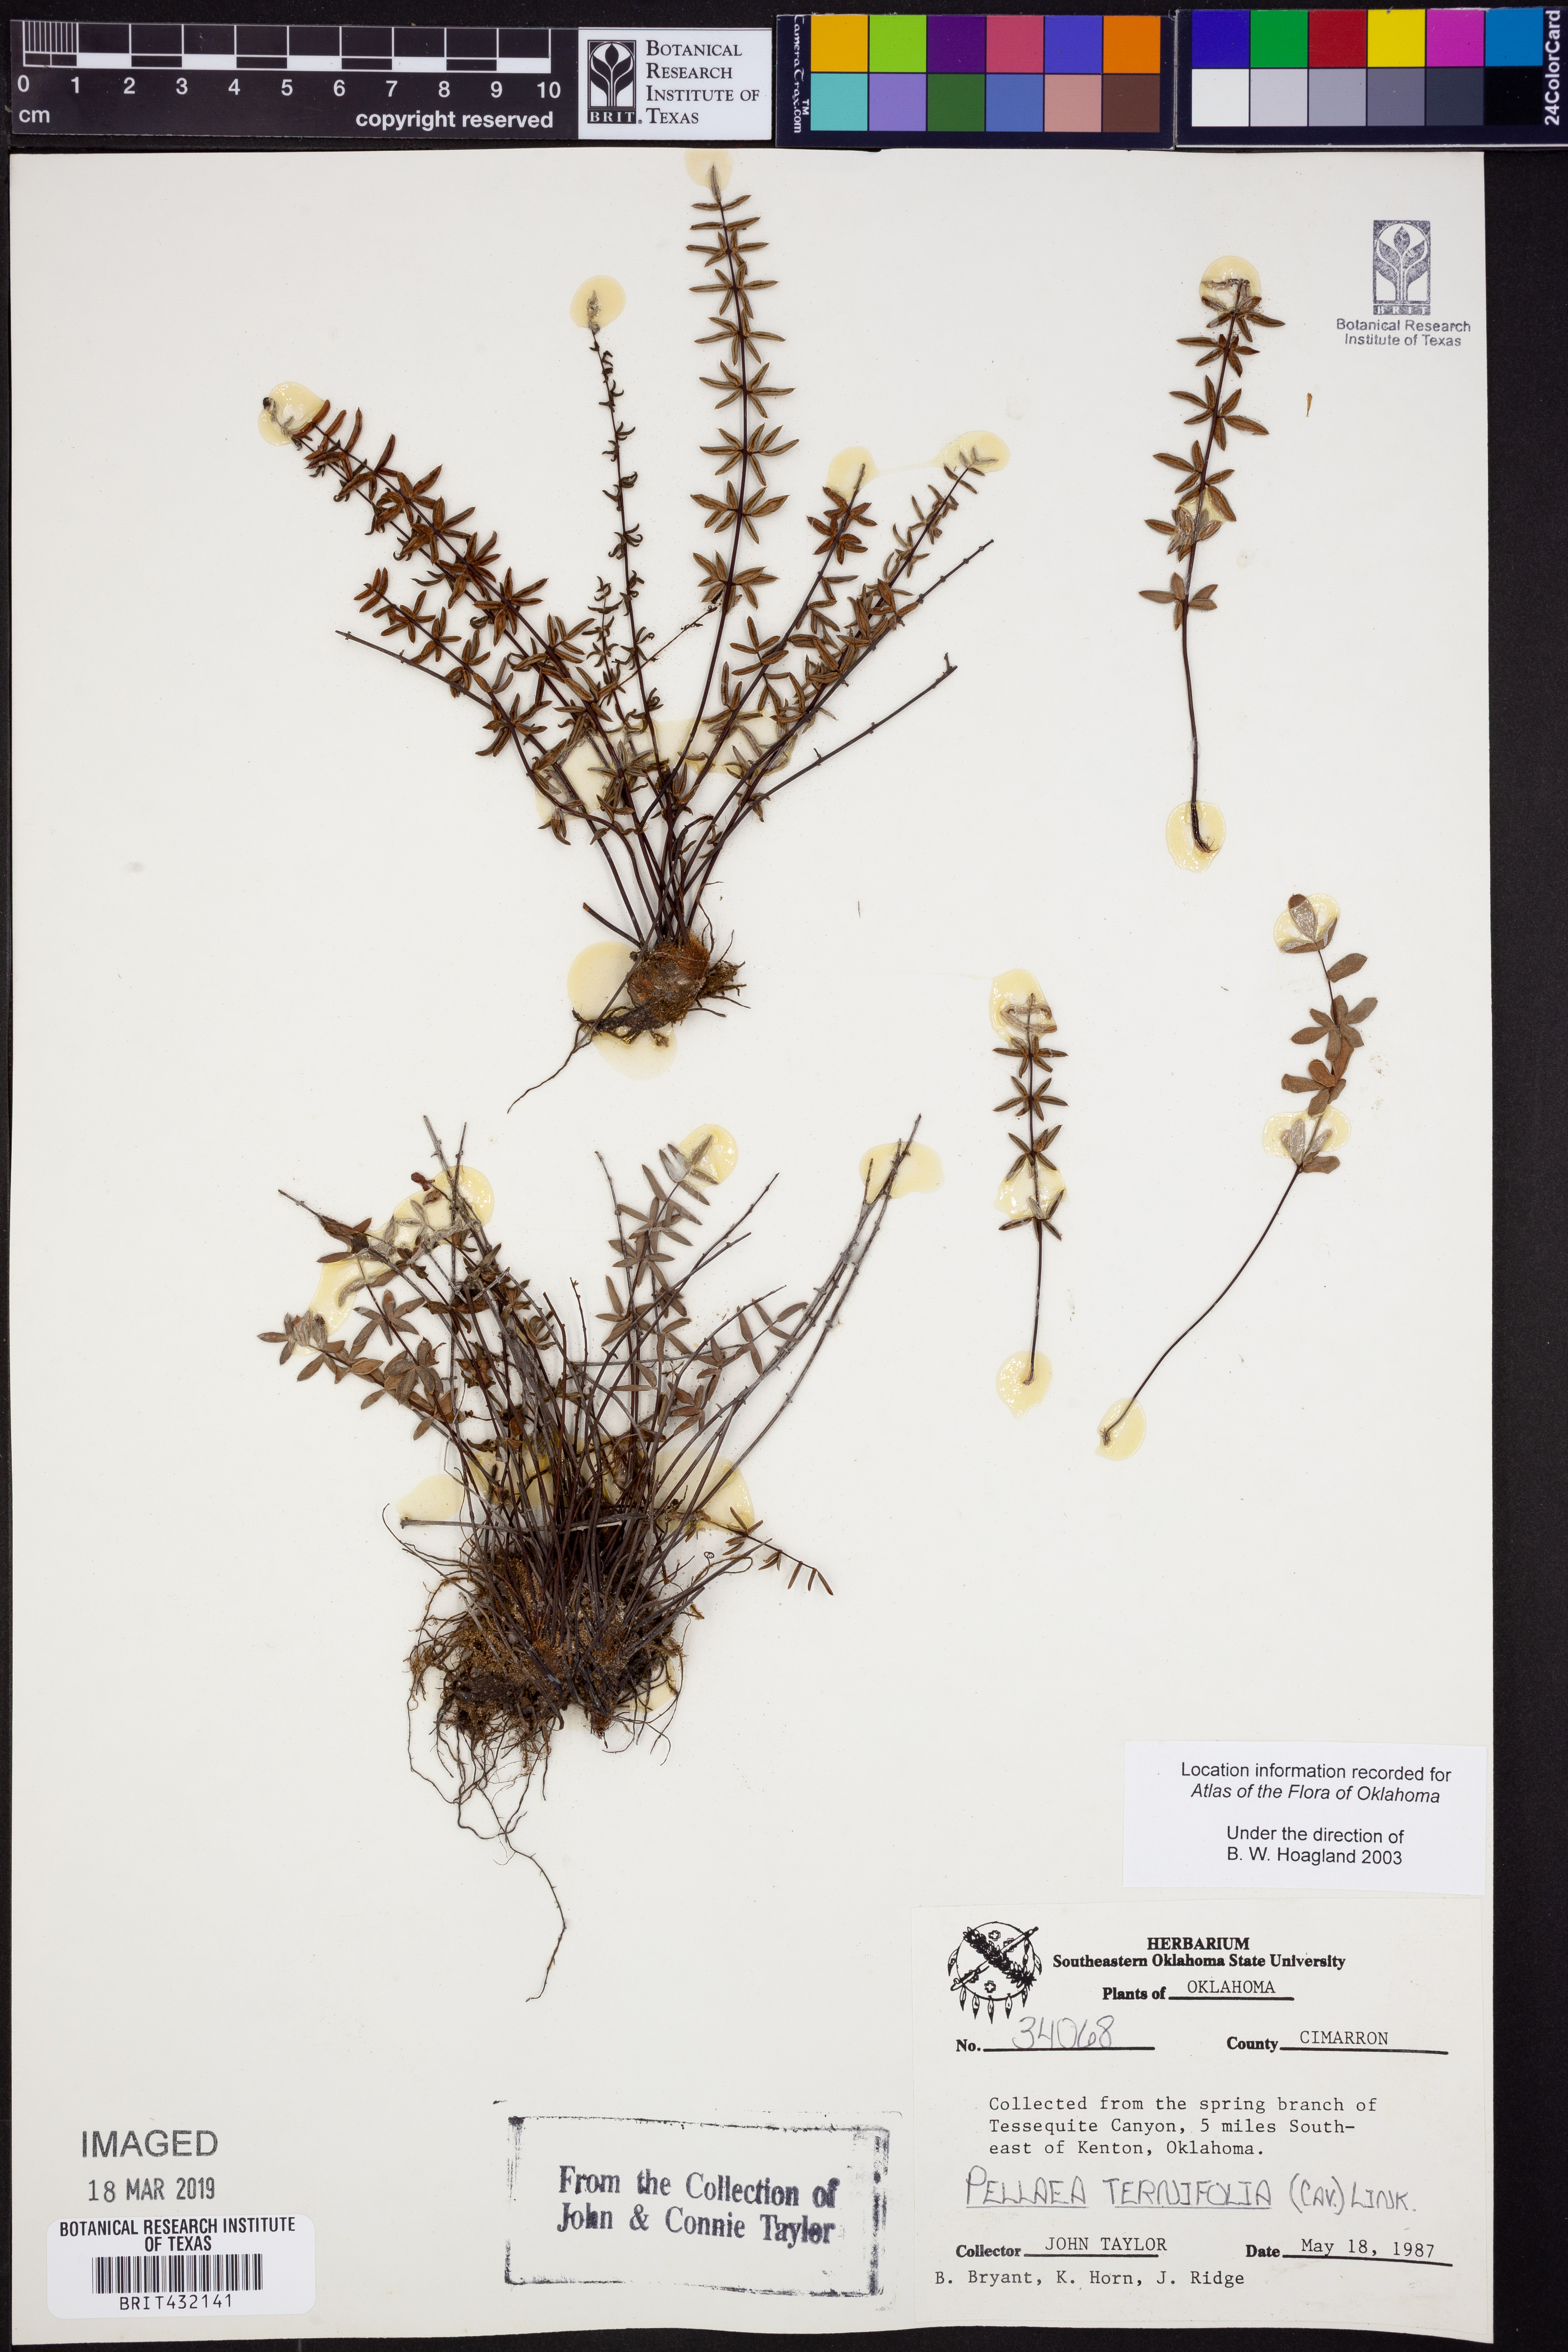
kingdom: Plantae
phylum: Tracheophyta
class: Polypodiopsida
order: Polypodiales
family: Pteridaceae
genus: Pellaea
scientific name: Pellaea ternifolia
